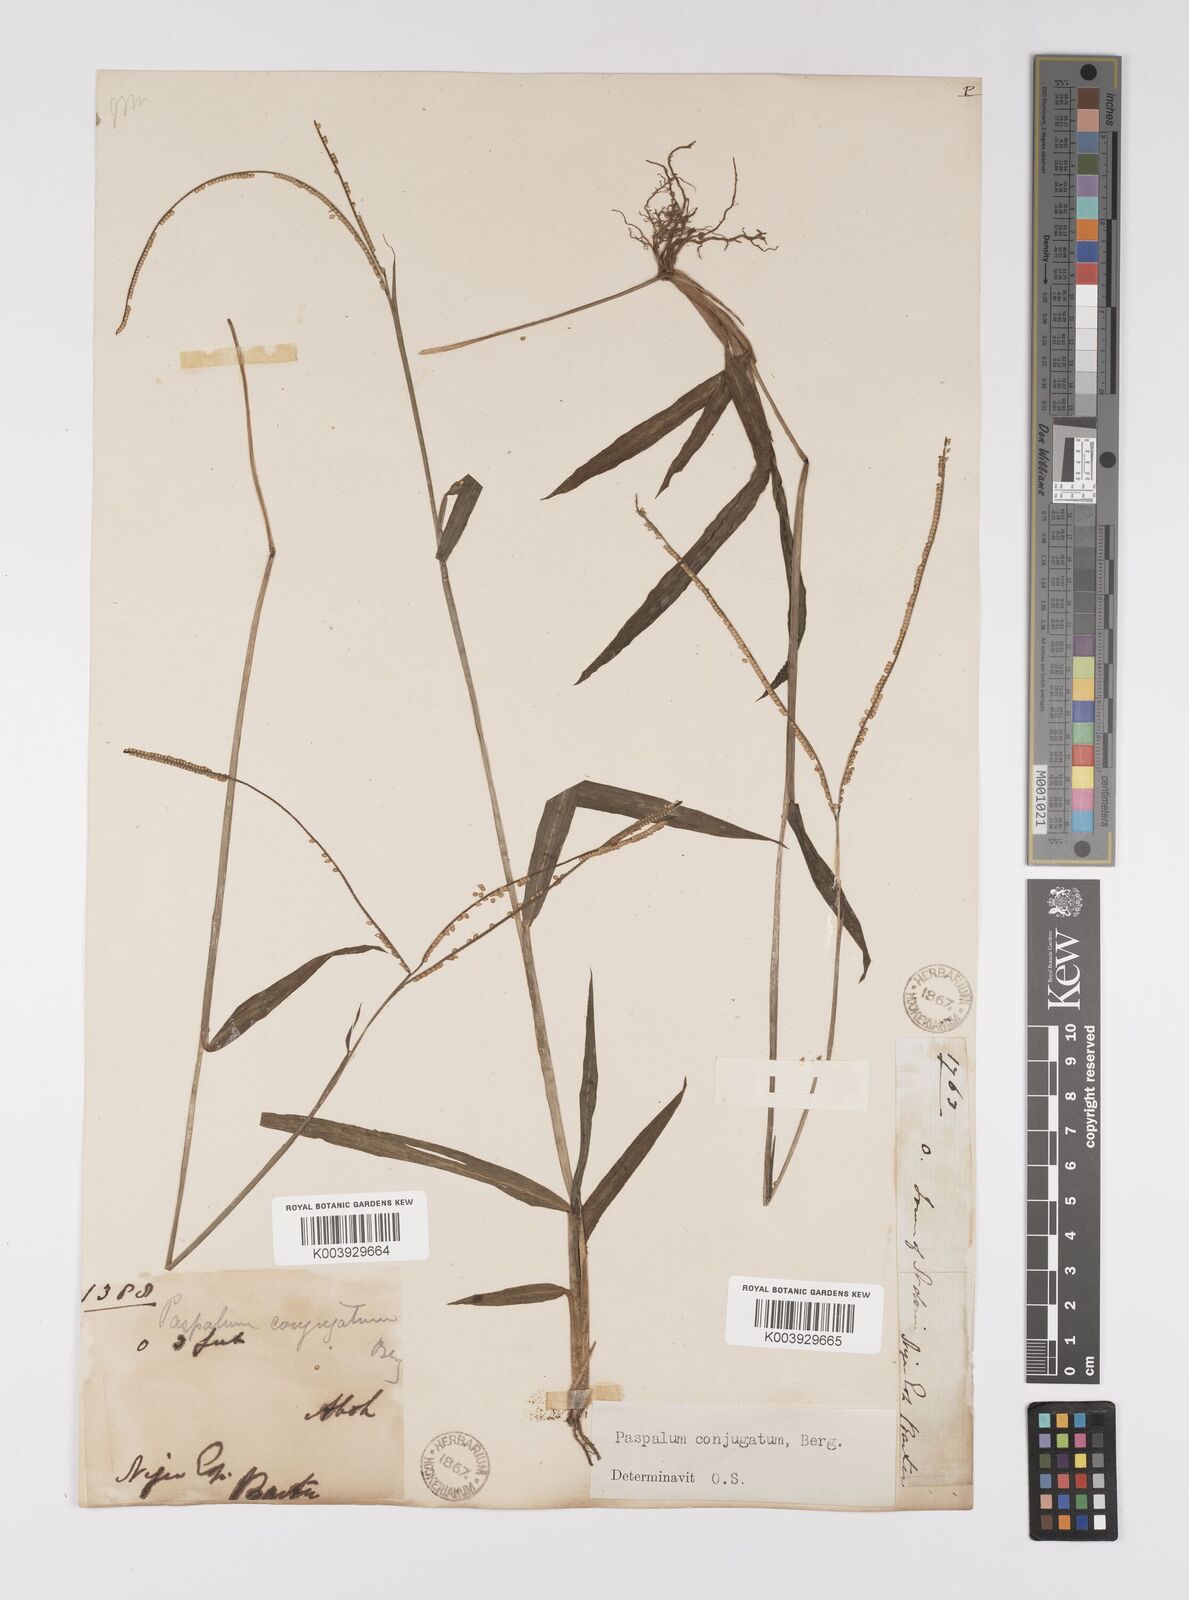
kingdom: Plantae
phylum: Tracheophyta
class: Liliopsida
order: Poales
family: Poaceae
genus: Paspalum
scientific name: Paspalum conjugatum
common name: Hilograss
